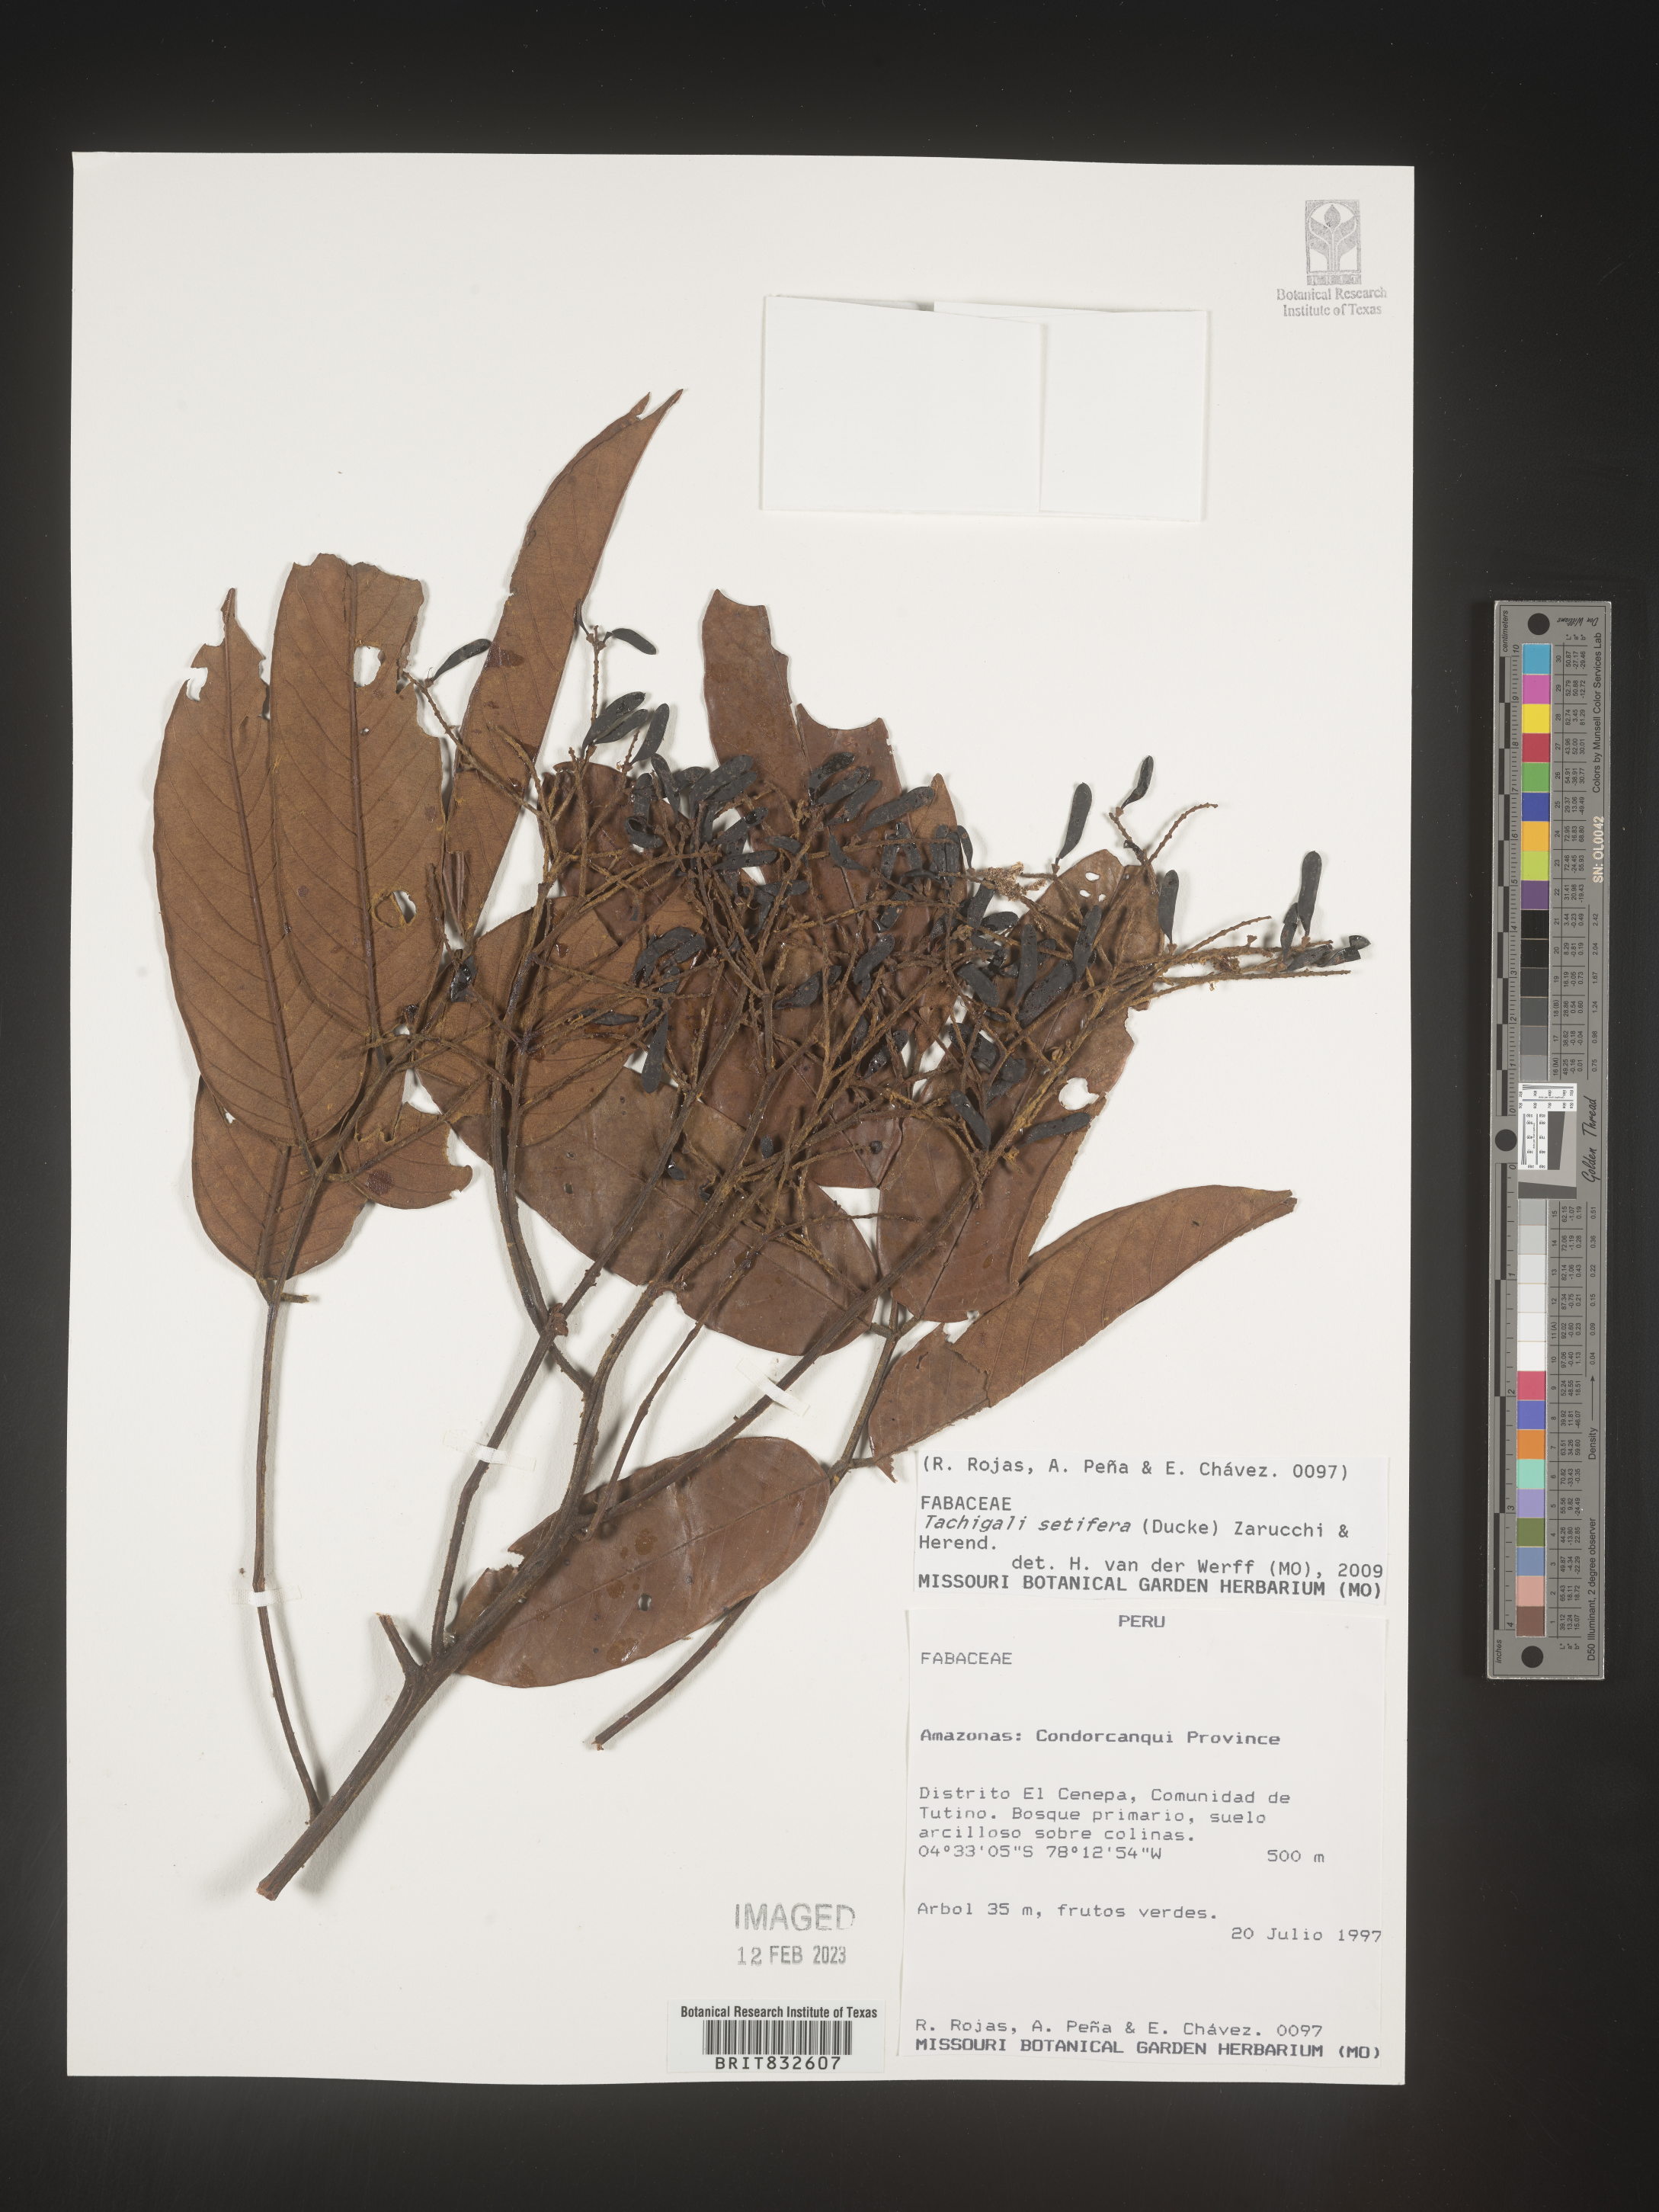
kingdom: Plantae
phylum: Tracheophyta
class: Magnoliopsida
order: Fabales
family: Fabaceae
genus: Tachigali
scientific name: Tachigali
